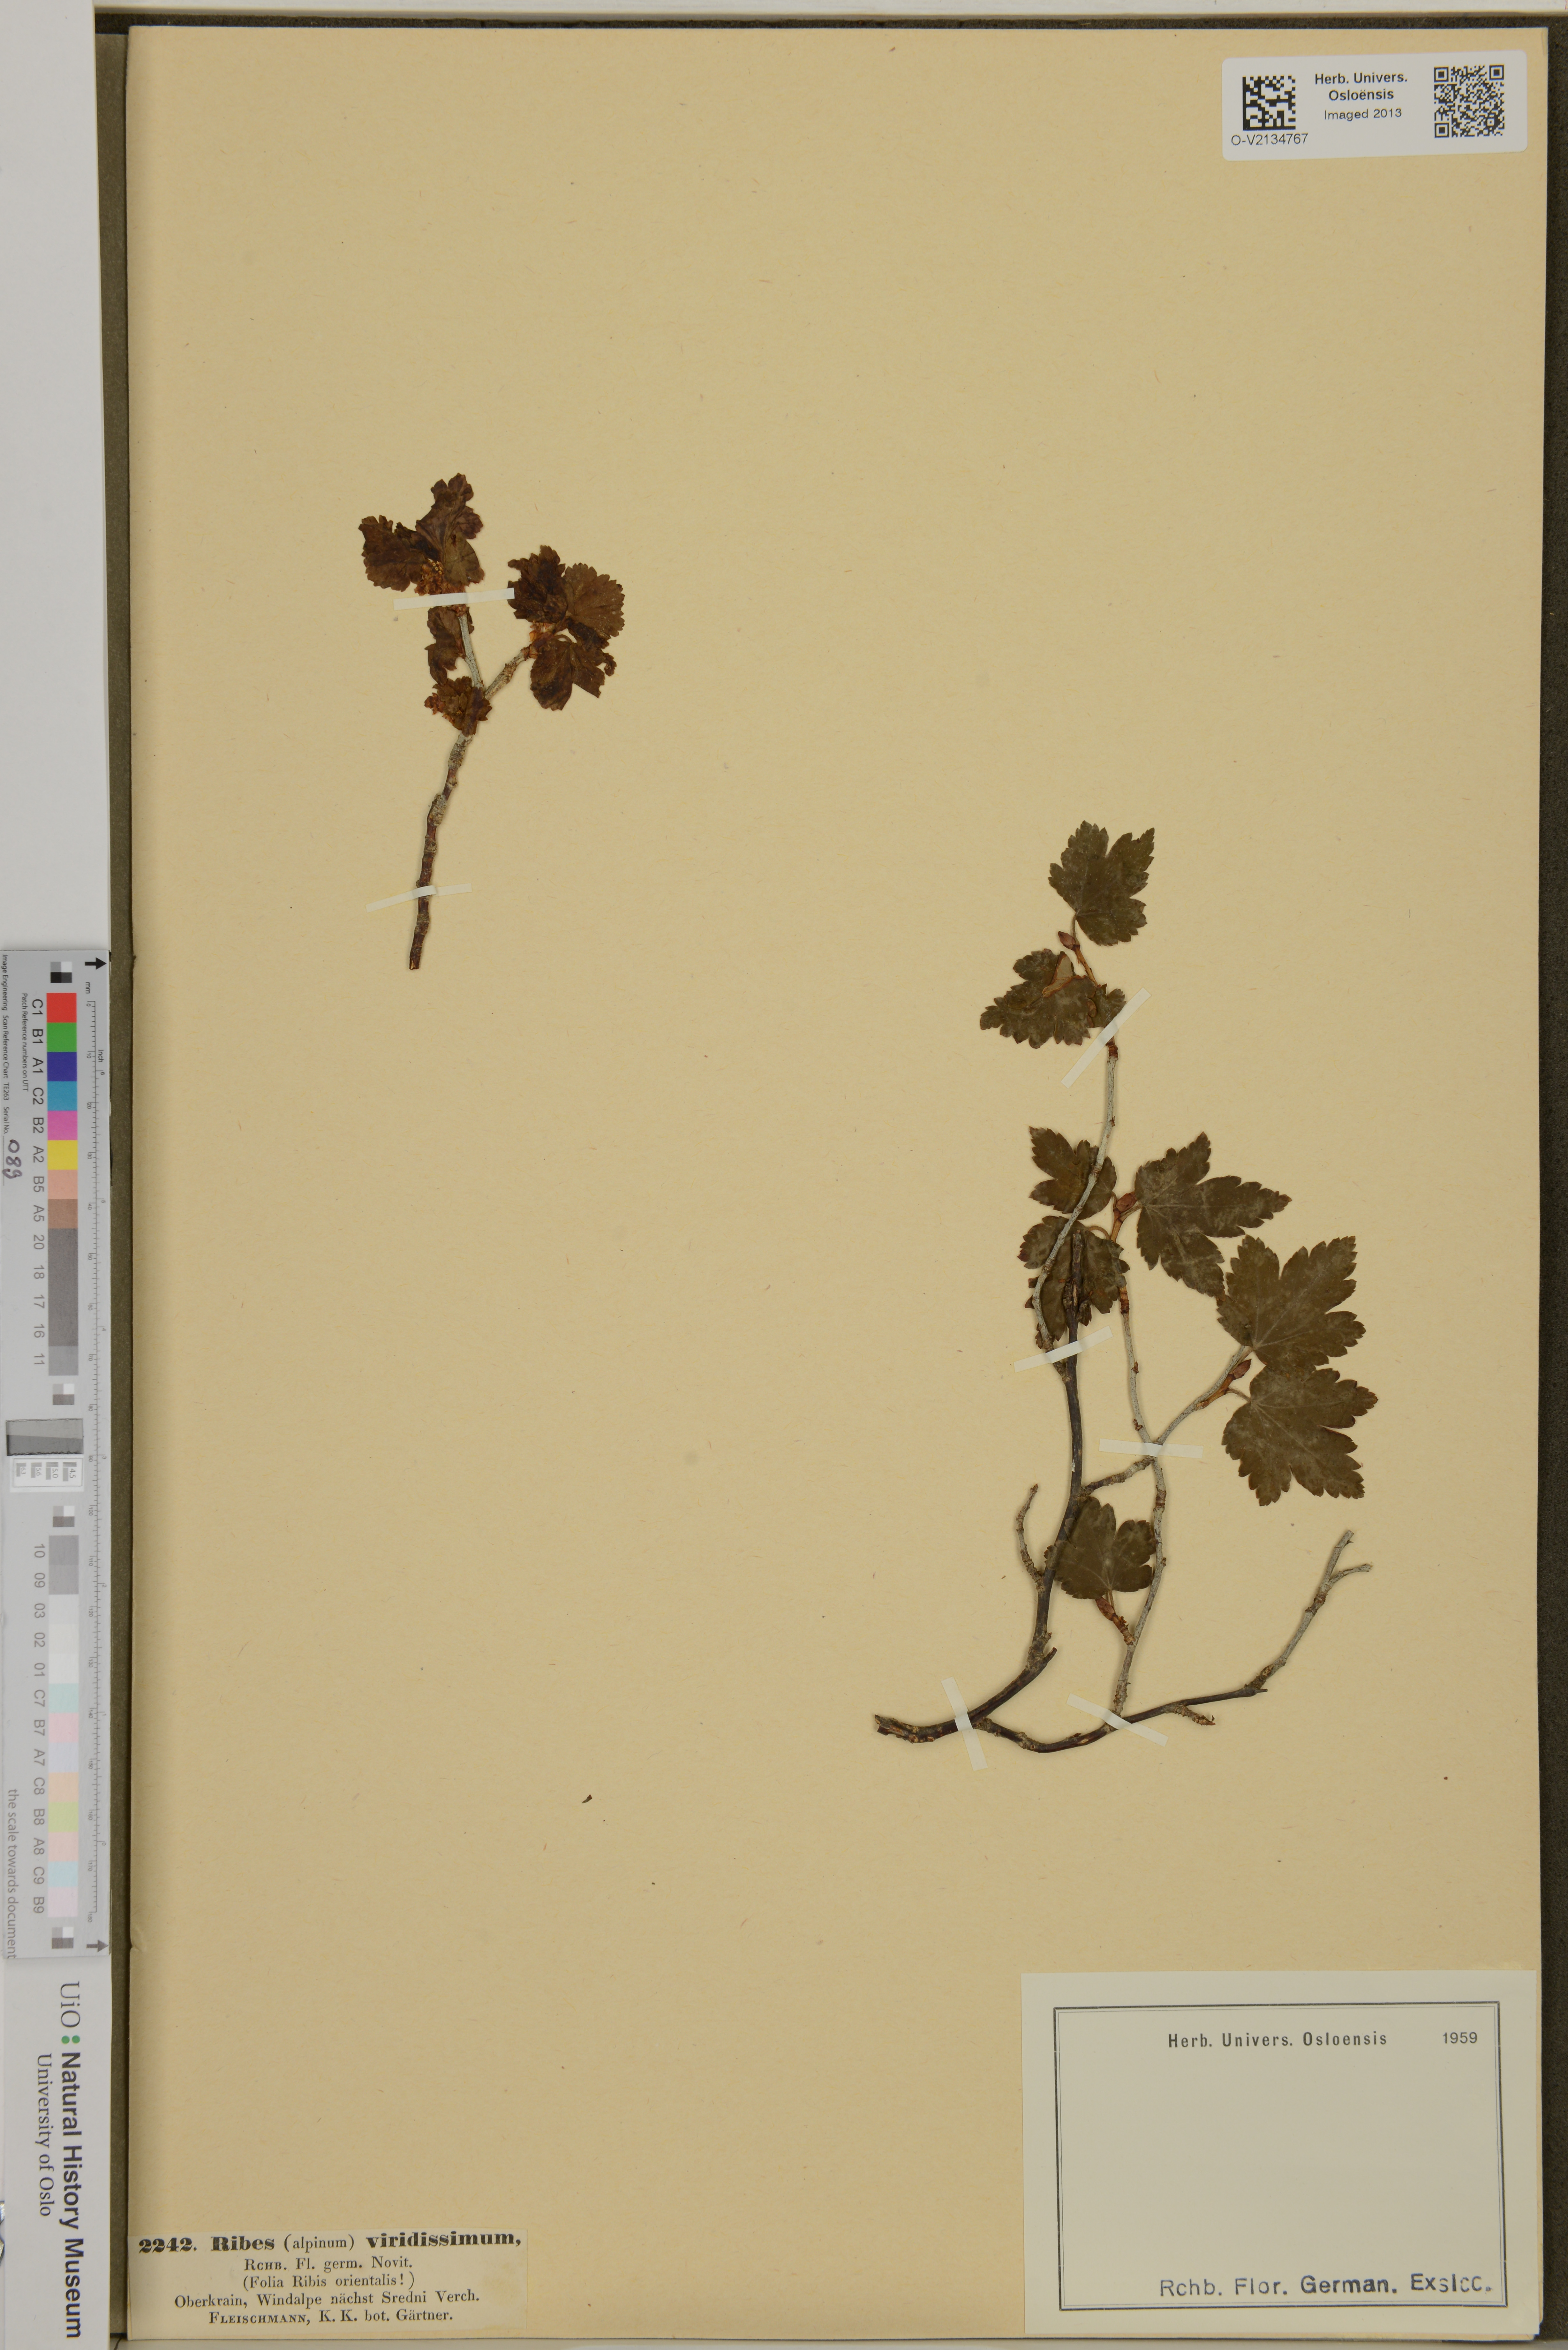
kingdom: Plantae
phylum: Tracheophyta
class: Magnoliopsida
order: Saxifragales
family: Grossulariaceae
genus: Ribes
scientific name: Ribes alpinum
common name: Alpine currant
